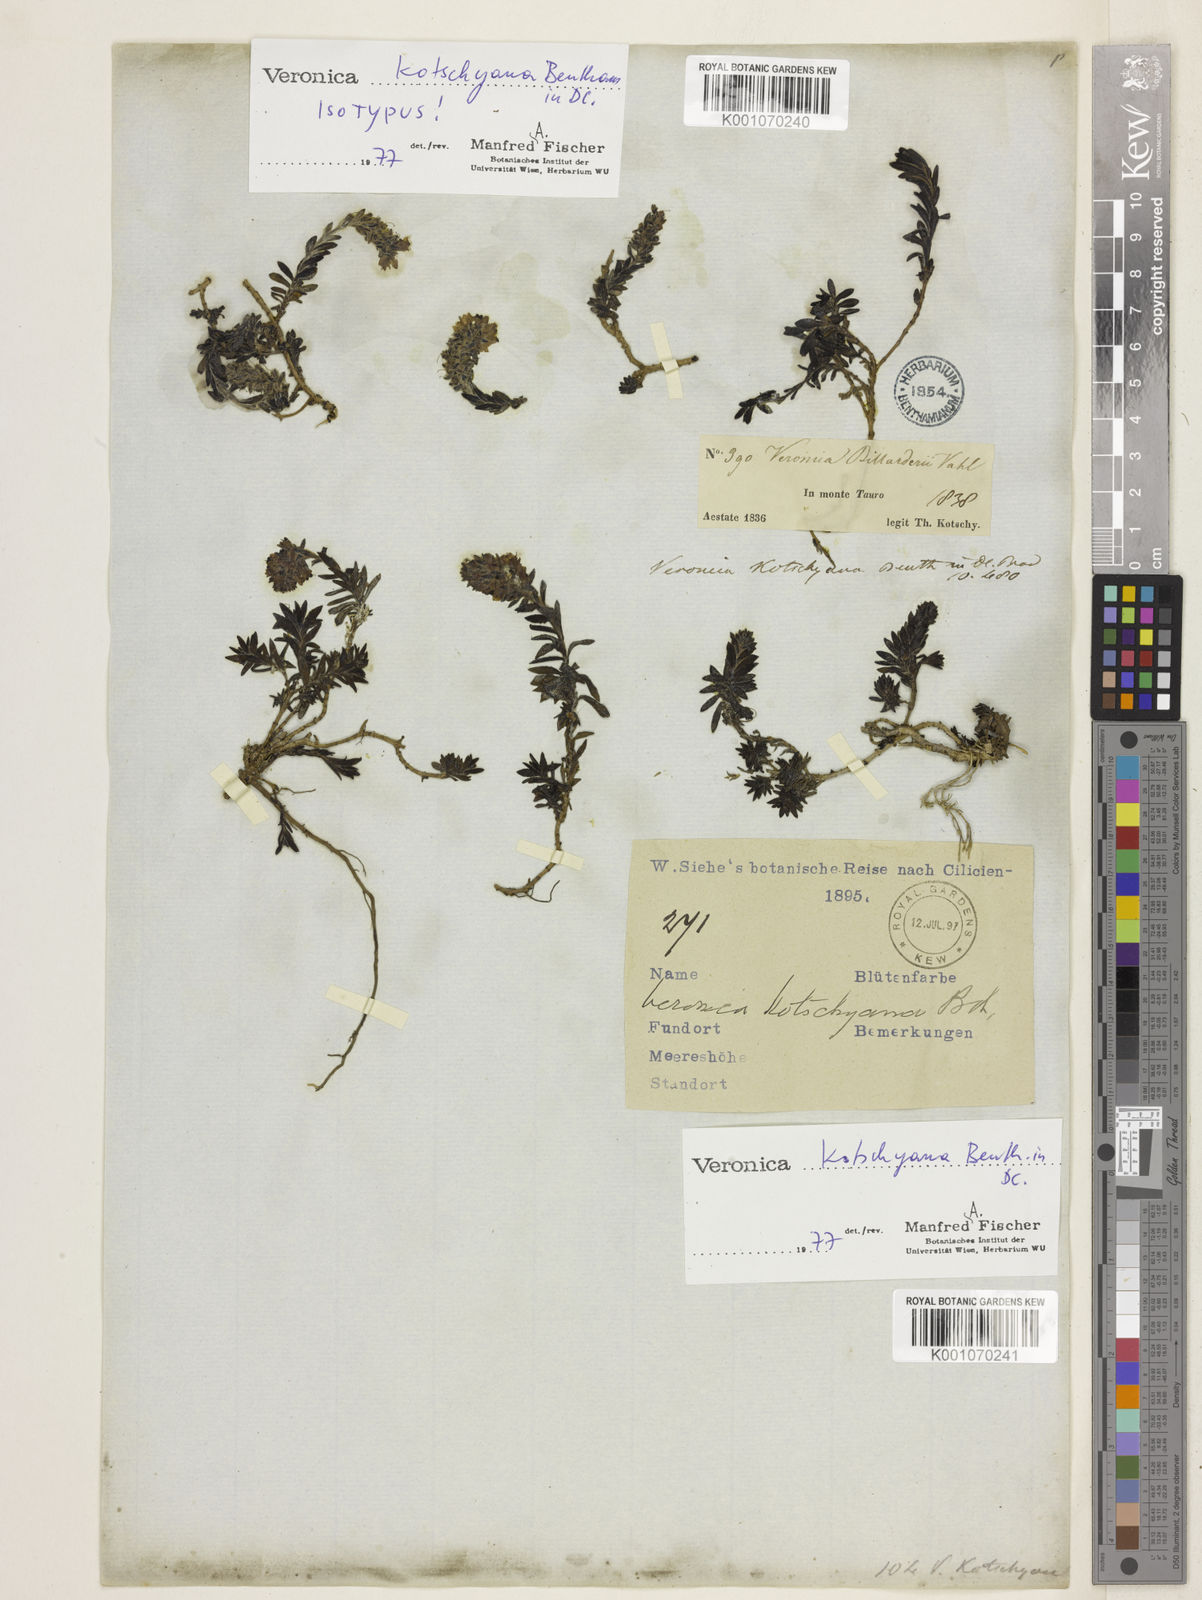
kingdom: Plantae
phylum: Tracheophyta
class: Magnoliopsida
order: Lamiales
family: Plantaginaceae
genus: Veronica
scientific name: Veronica kotschyana
